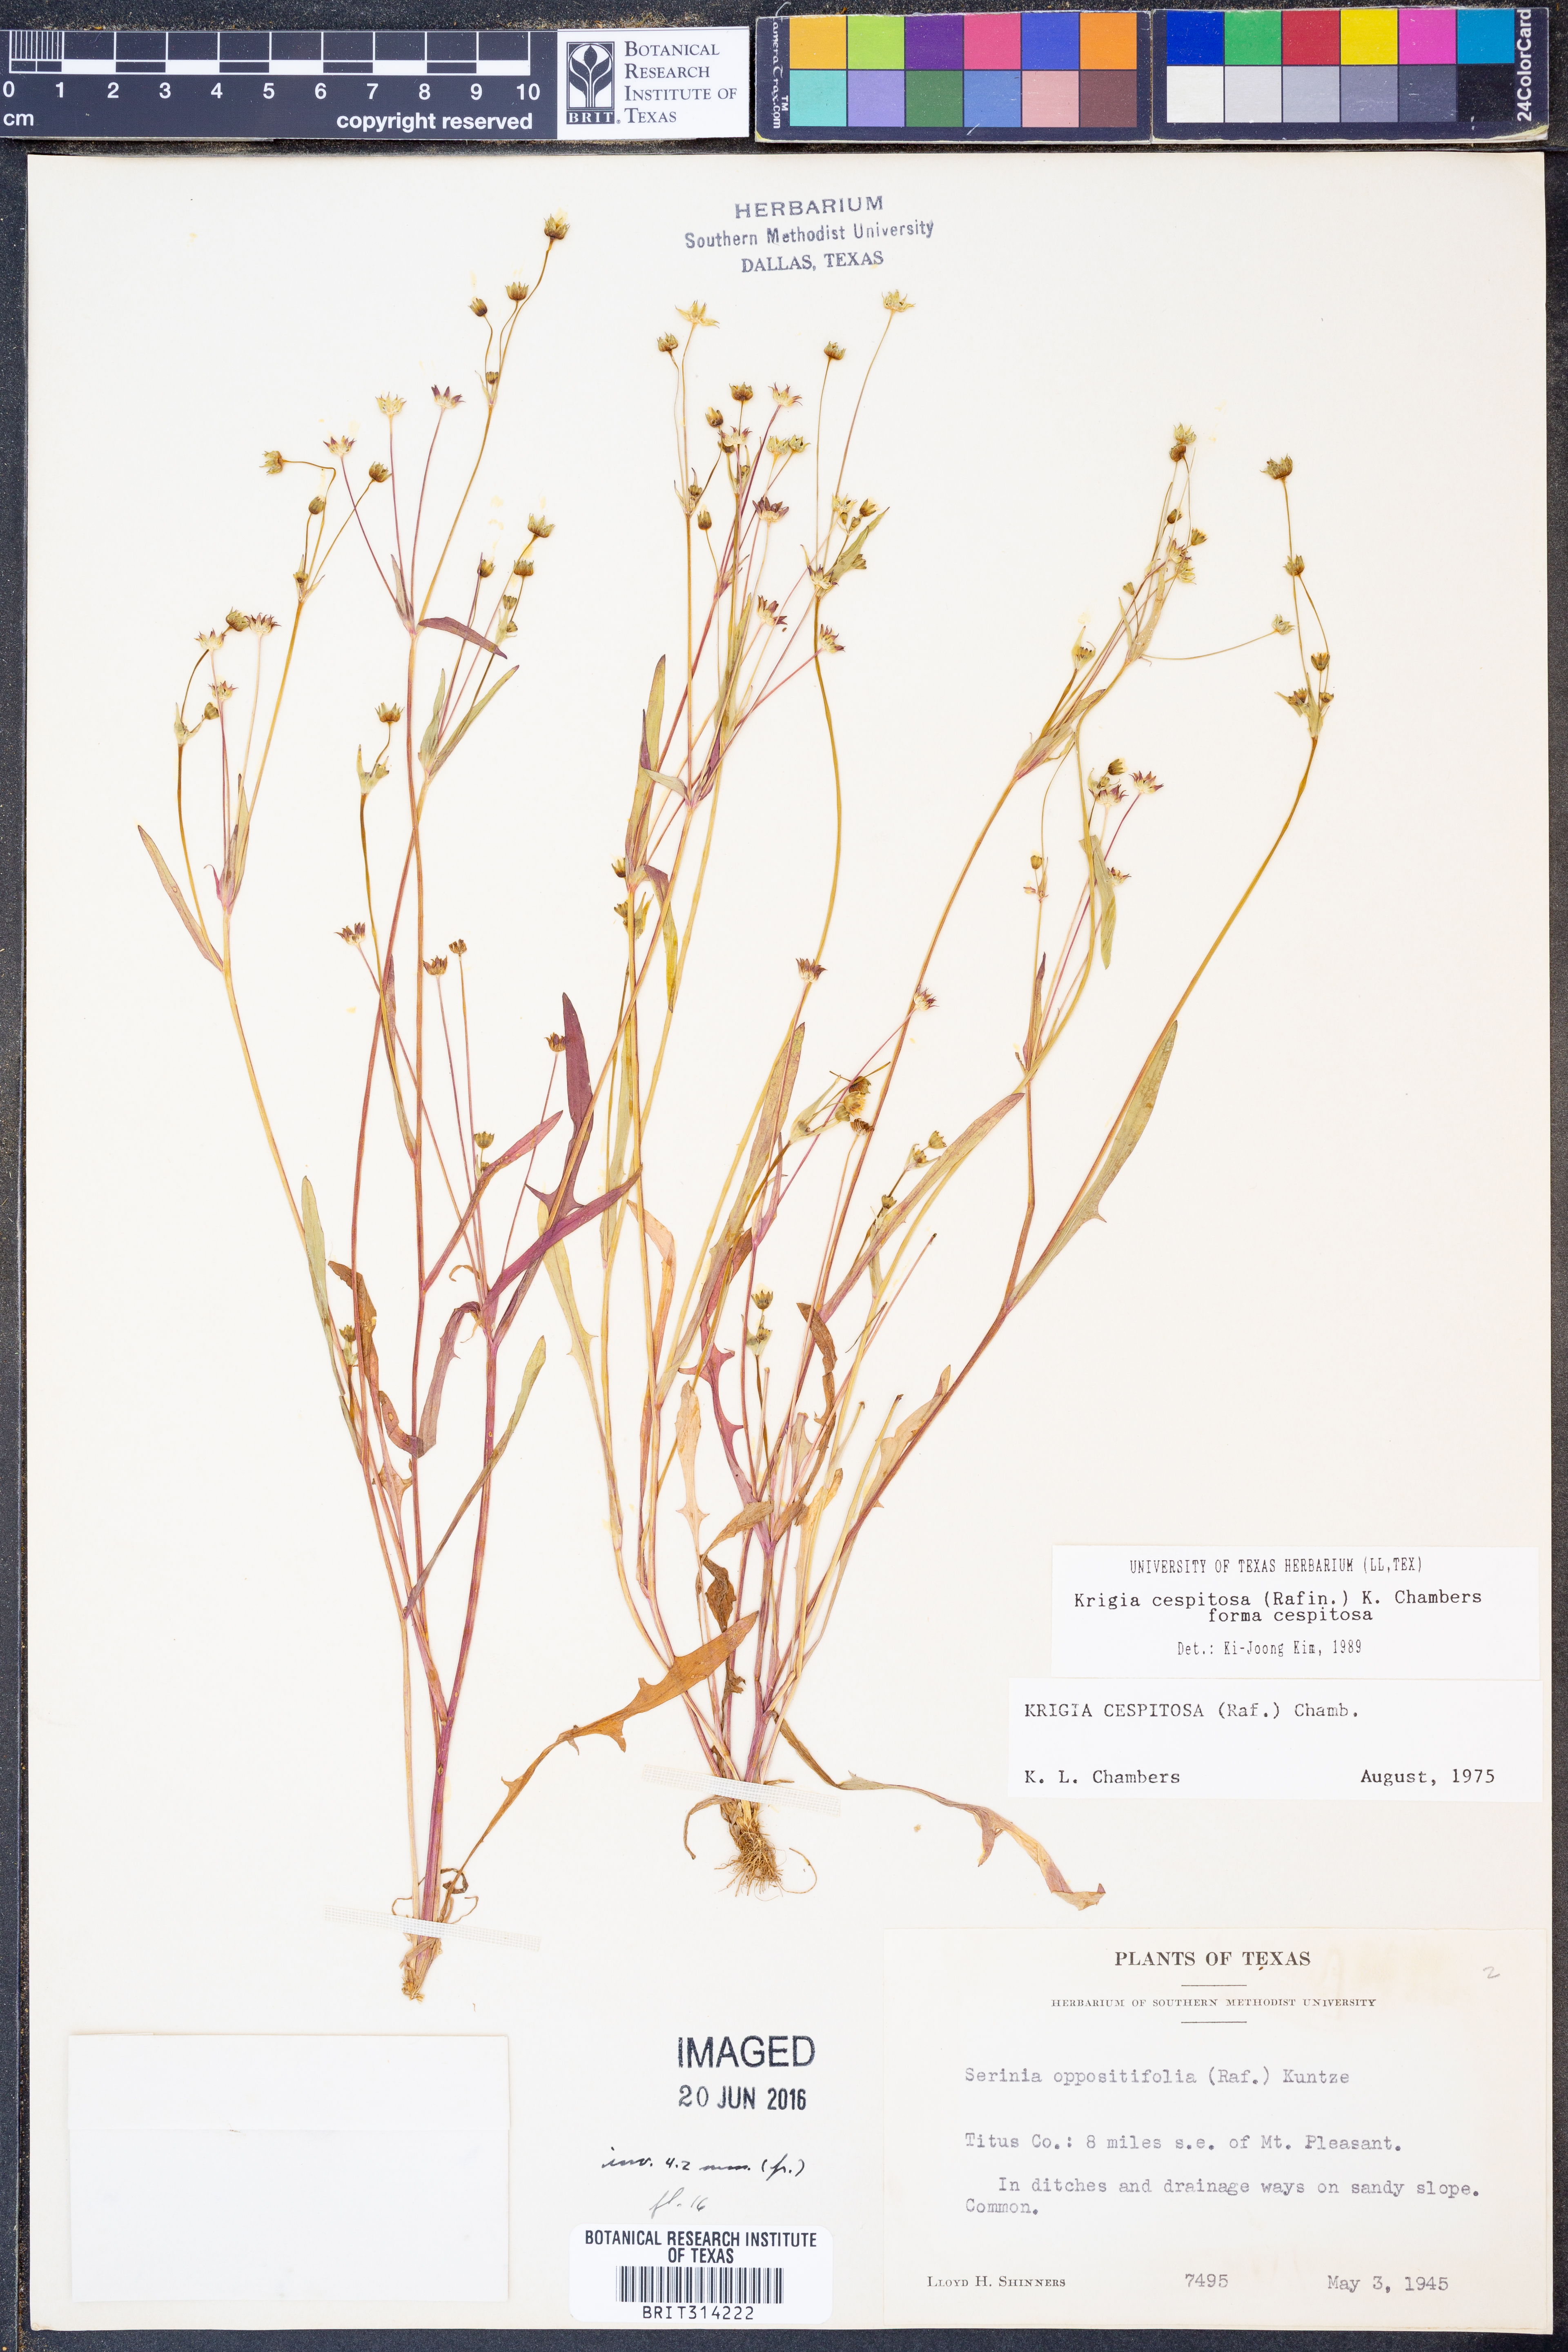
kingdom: Plantae
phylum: Tracheophyta
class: Magnoliopsida
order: Asterales
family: Asteraceae
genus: Krigia
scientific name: Krigia cespitosa
